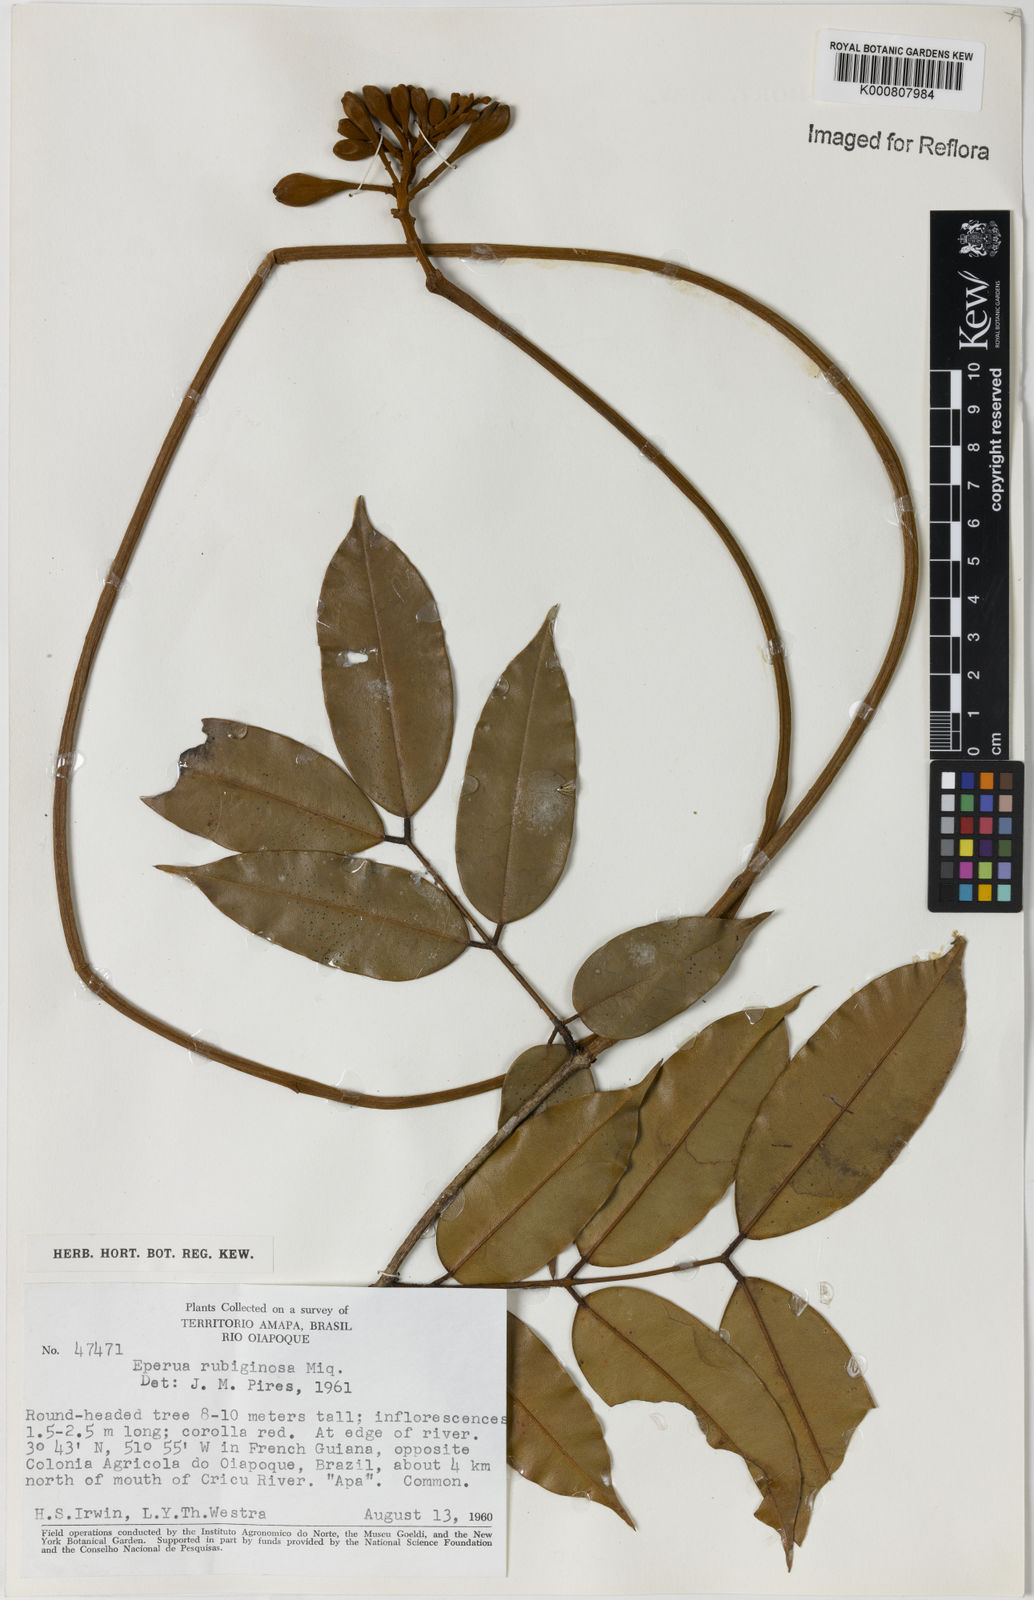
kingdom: Plantae
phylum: Tracheophyta
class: Magnoliopsida
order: Fabales
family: Fabaceae
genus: Eperua
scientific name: Eperua rubiginosa
